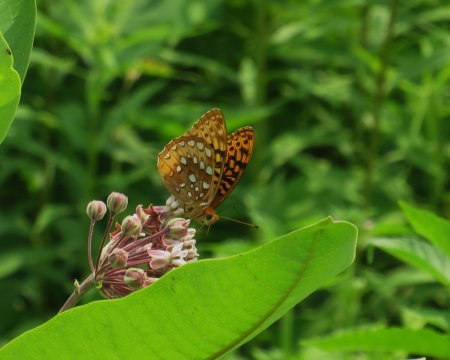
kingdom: Animalia
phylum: Arthropoda
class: Insecta
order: Lepidoptera
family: Nymphalidae
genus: Speyeria
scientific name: Speyeria cybele
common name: Great Spangled Fritillary
